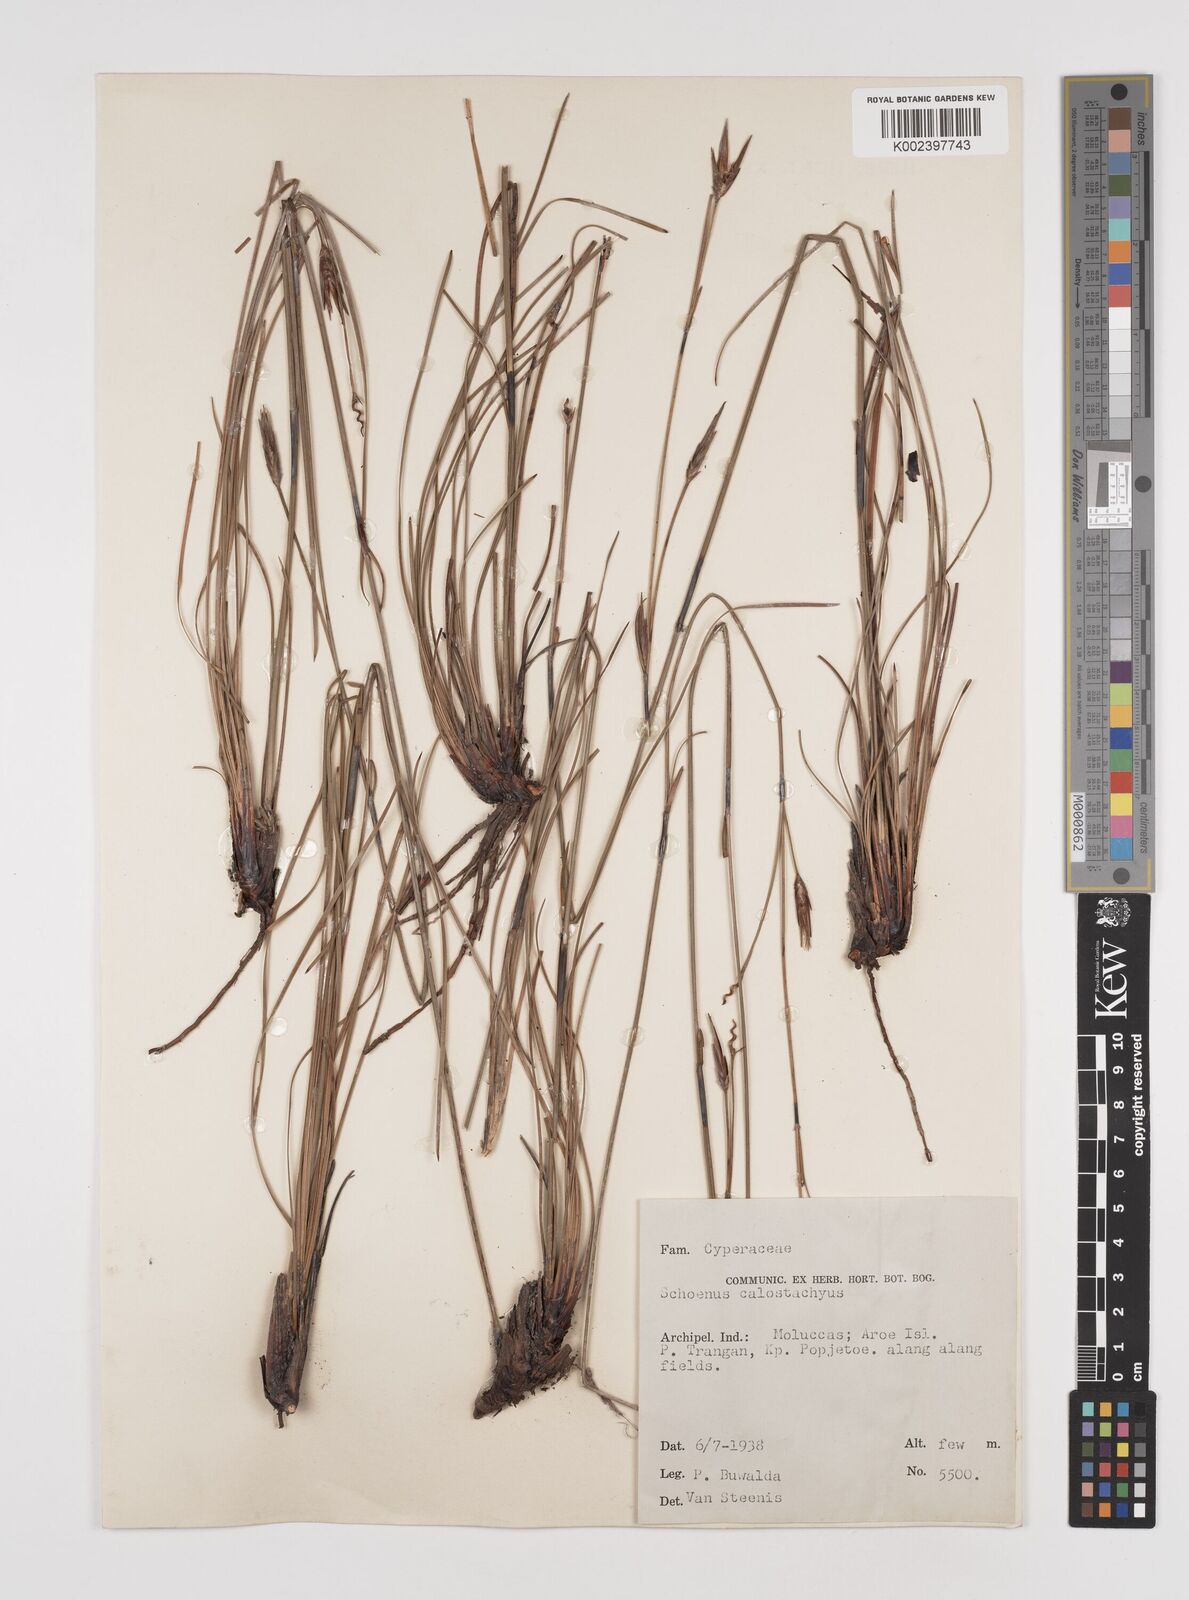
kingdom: Plantae
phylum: Tracheophyta
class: Liliopsida
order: Poales
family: Cyperaceae
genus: Schoenus
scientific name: Schoenus calostachyus
